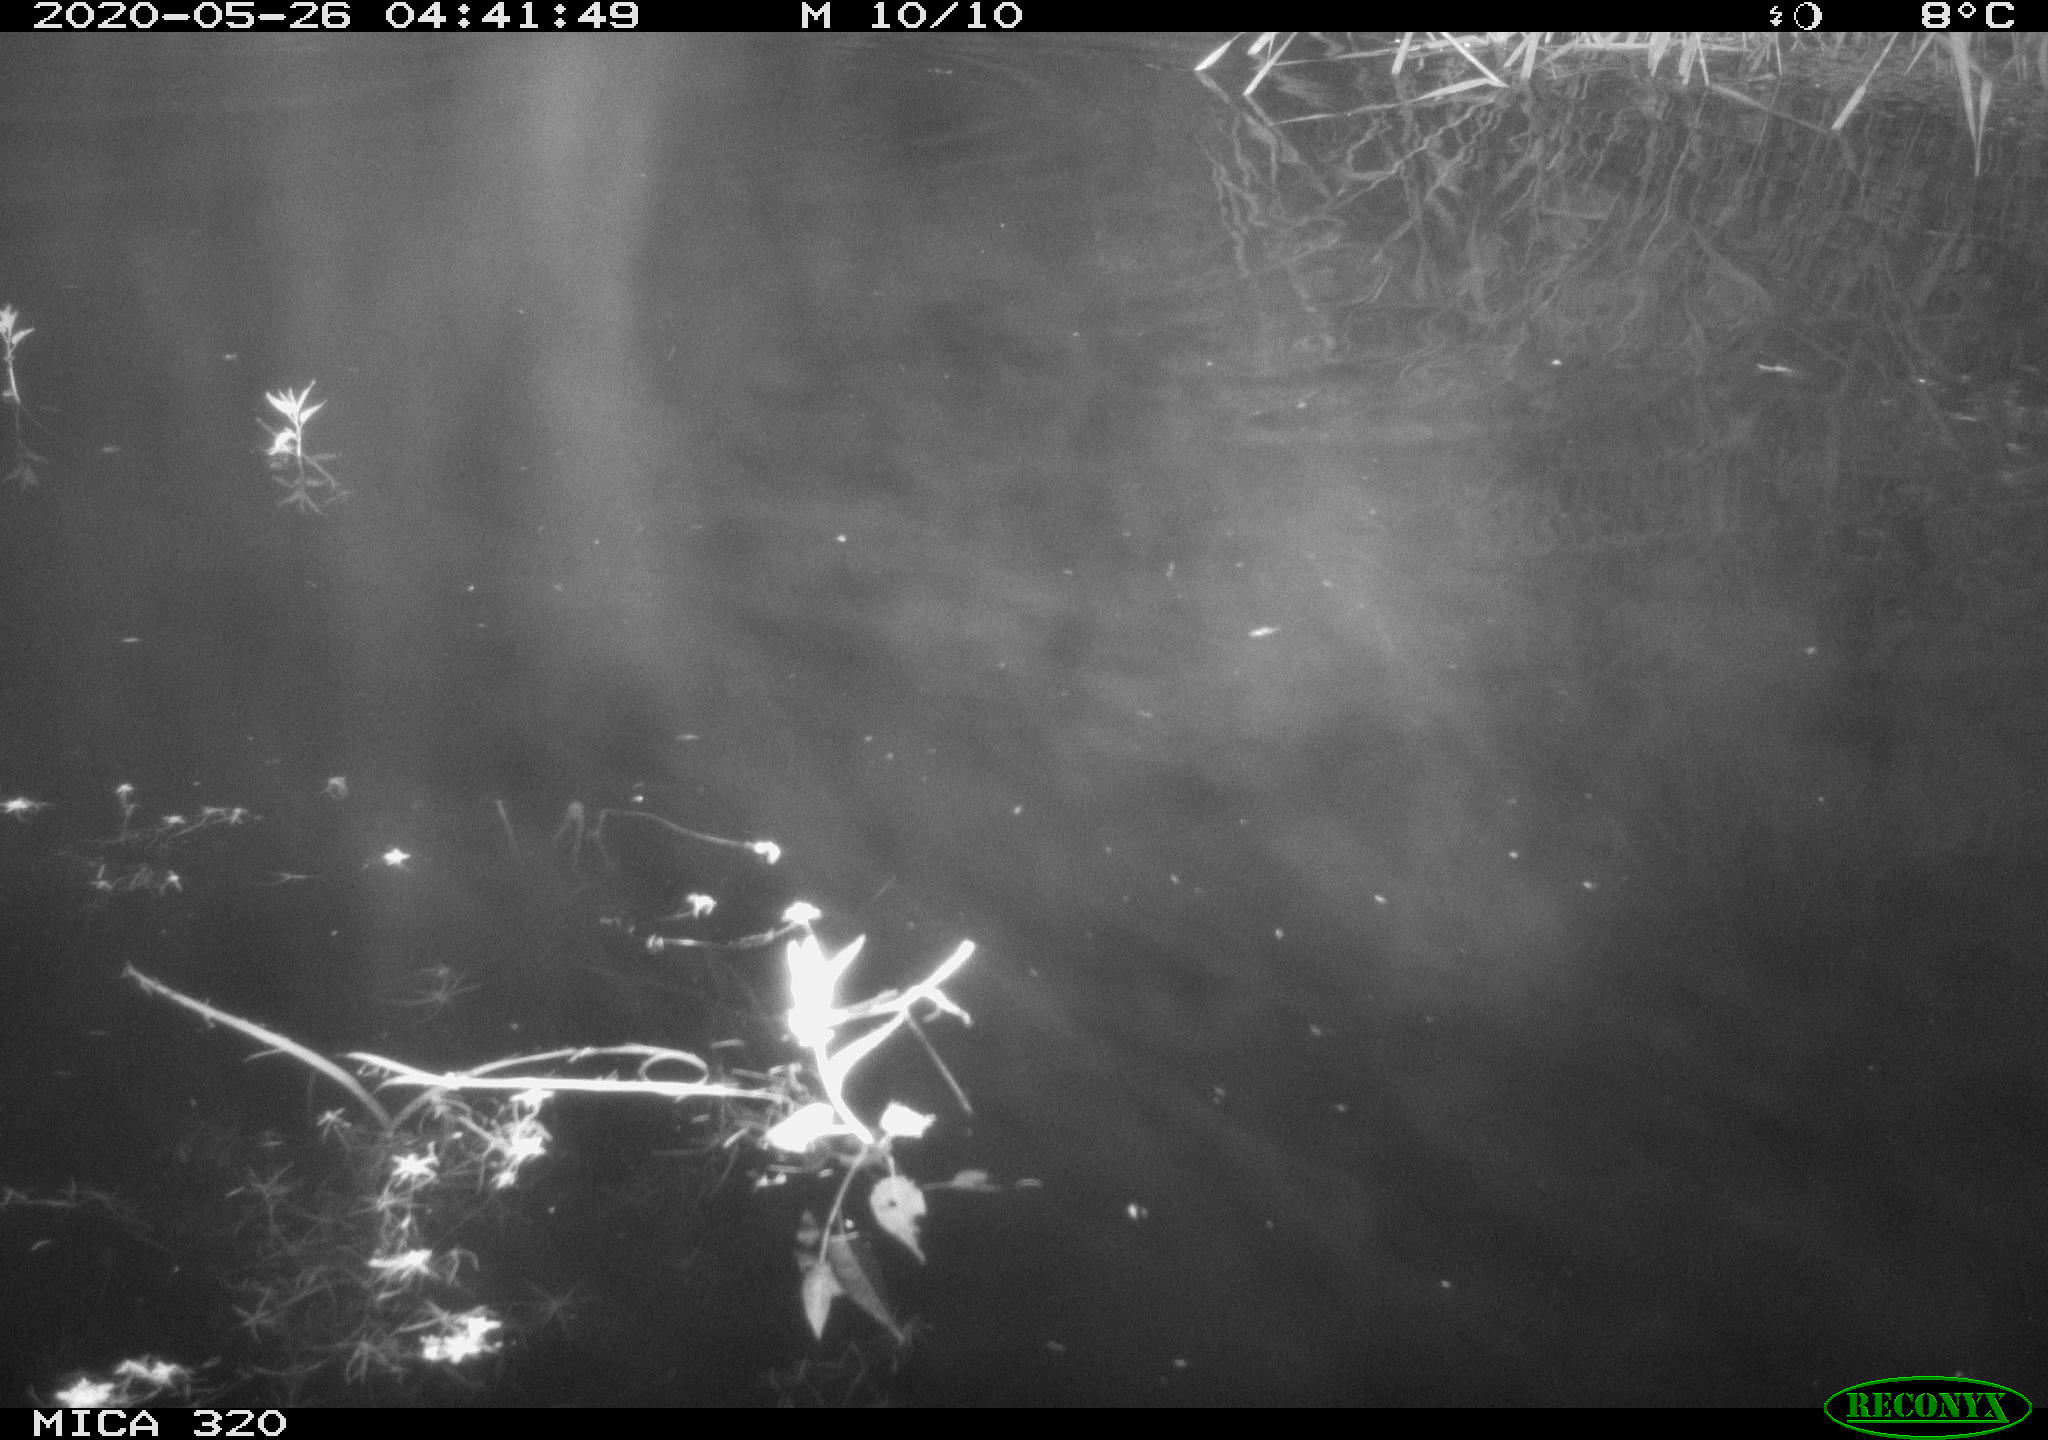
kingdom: Animalia
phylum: Chordata
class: Aves
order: Anseriformes
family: Anatidae
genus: Anas
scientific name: Anas platyrhynchos
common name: Mallard
